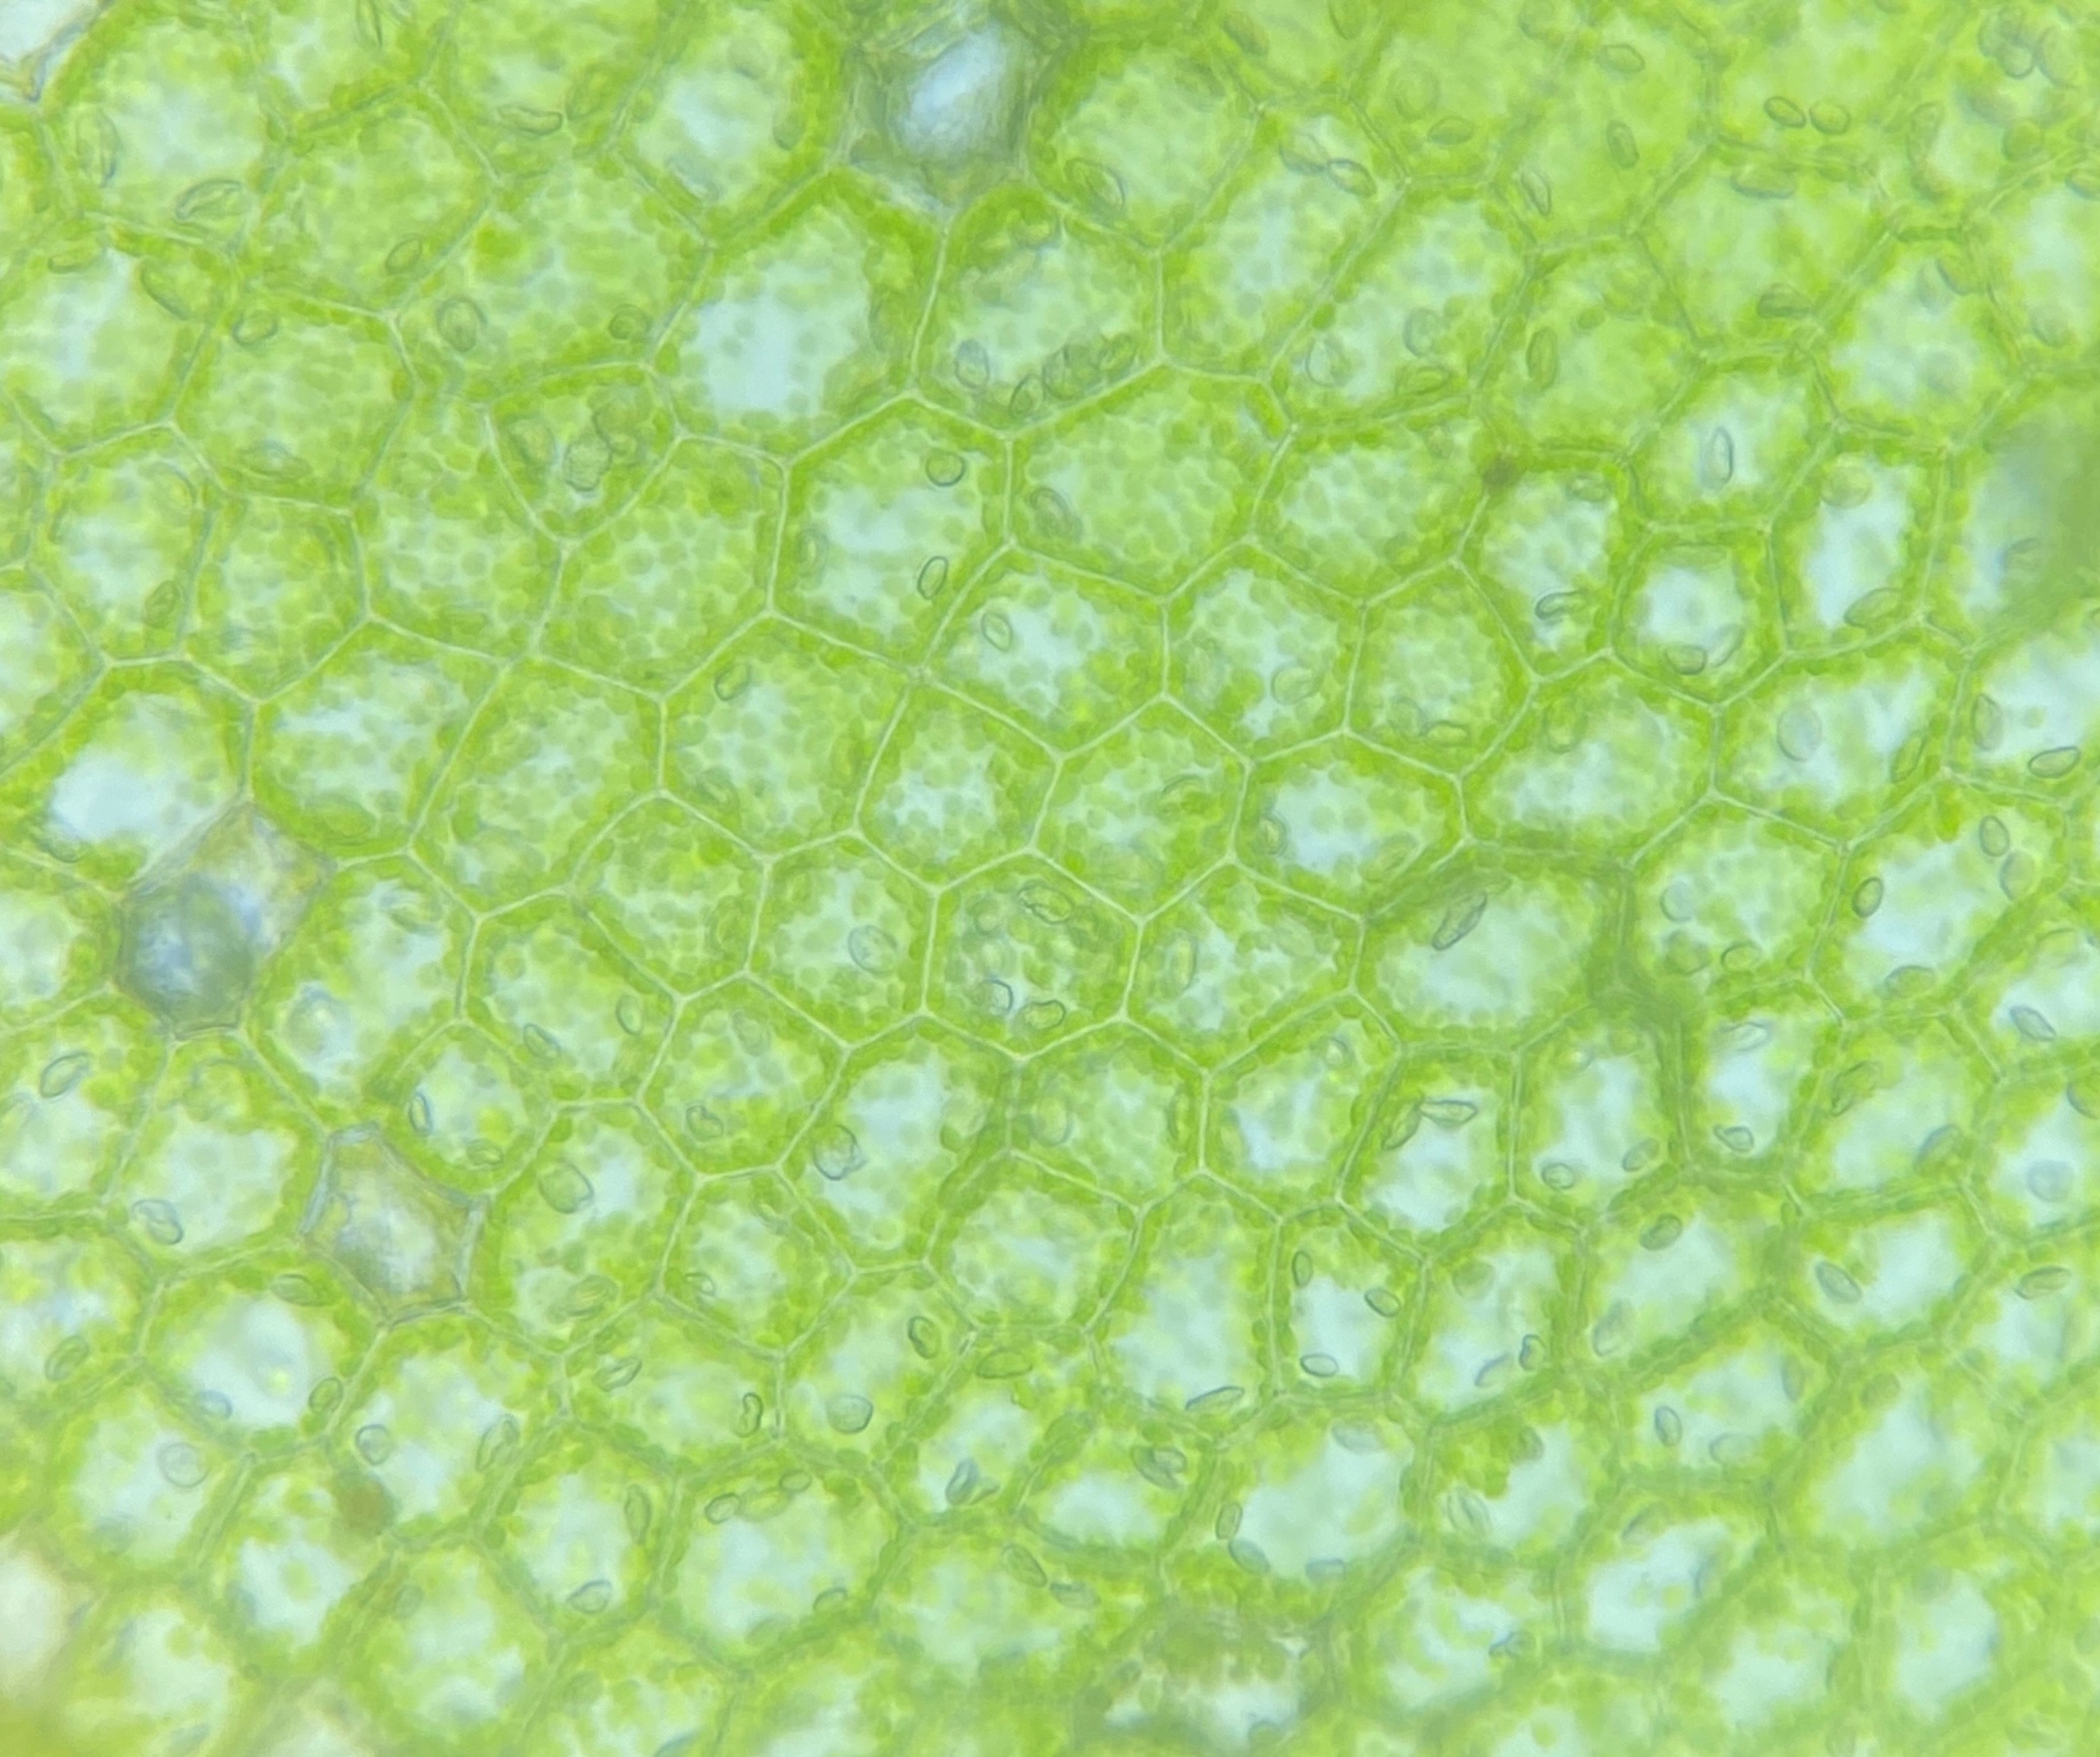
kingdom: Plantae
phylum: Marchantiophyta
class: Jungermanniopsida
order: Jungermanniales
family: Lophocoleaceae
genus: Chiloscyphus
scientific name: Chiloscyphus pallescens
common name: Bleg læbemund
